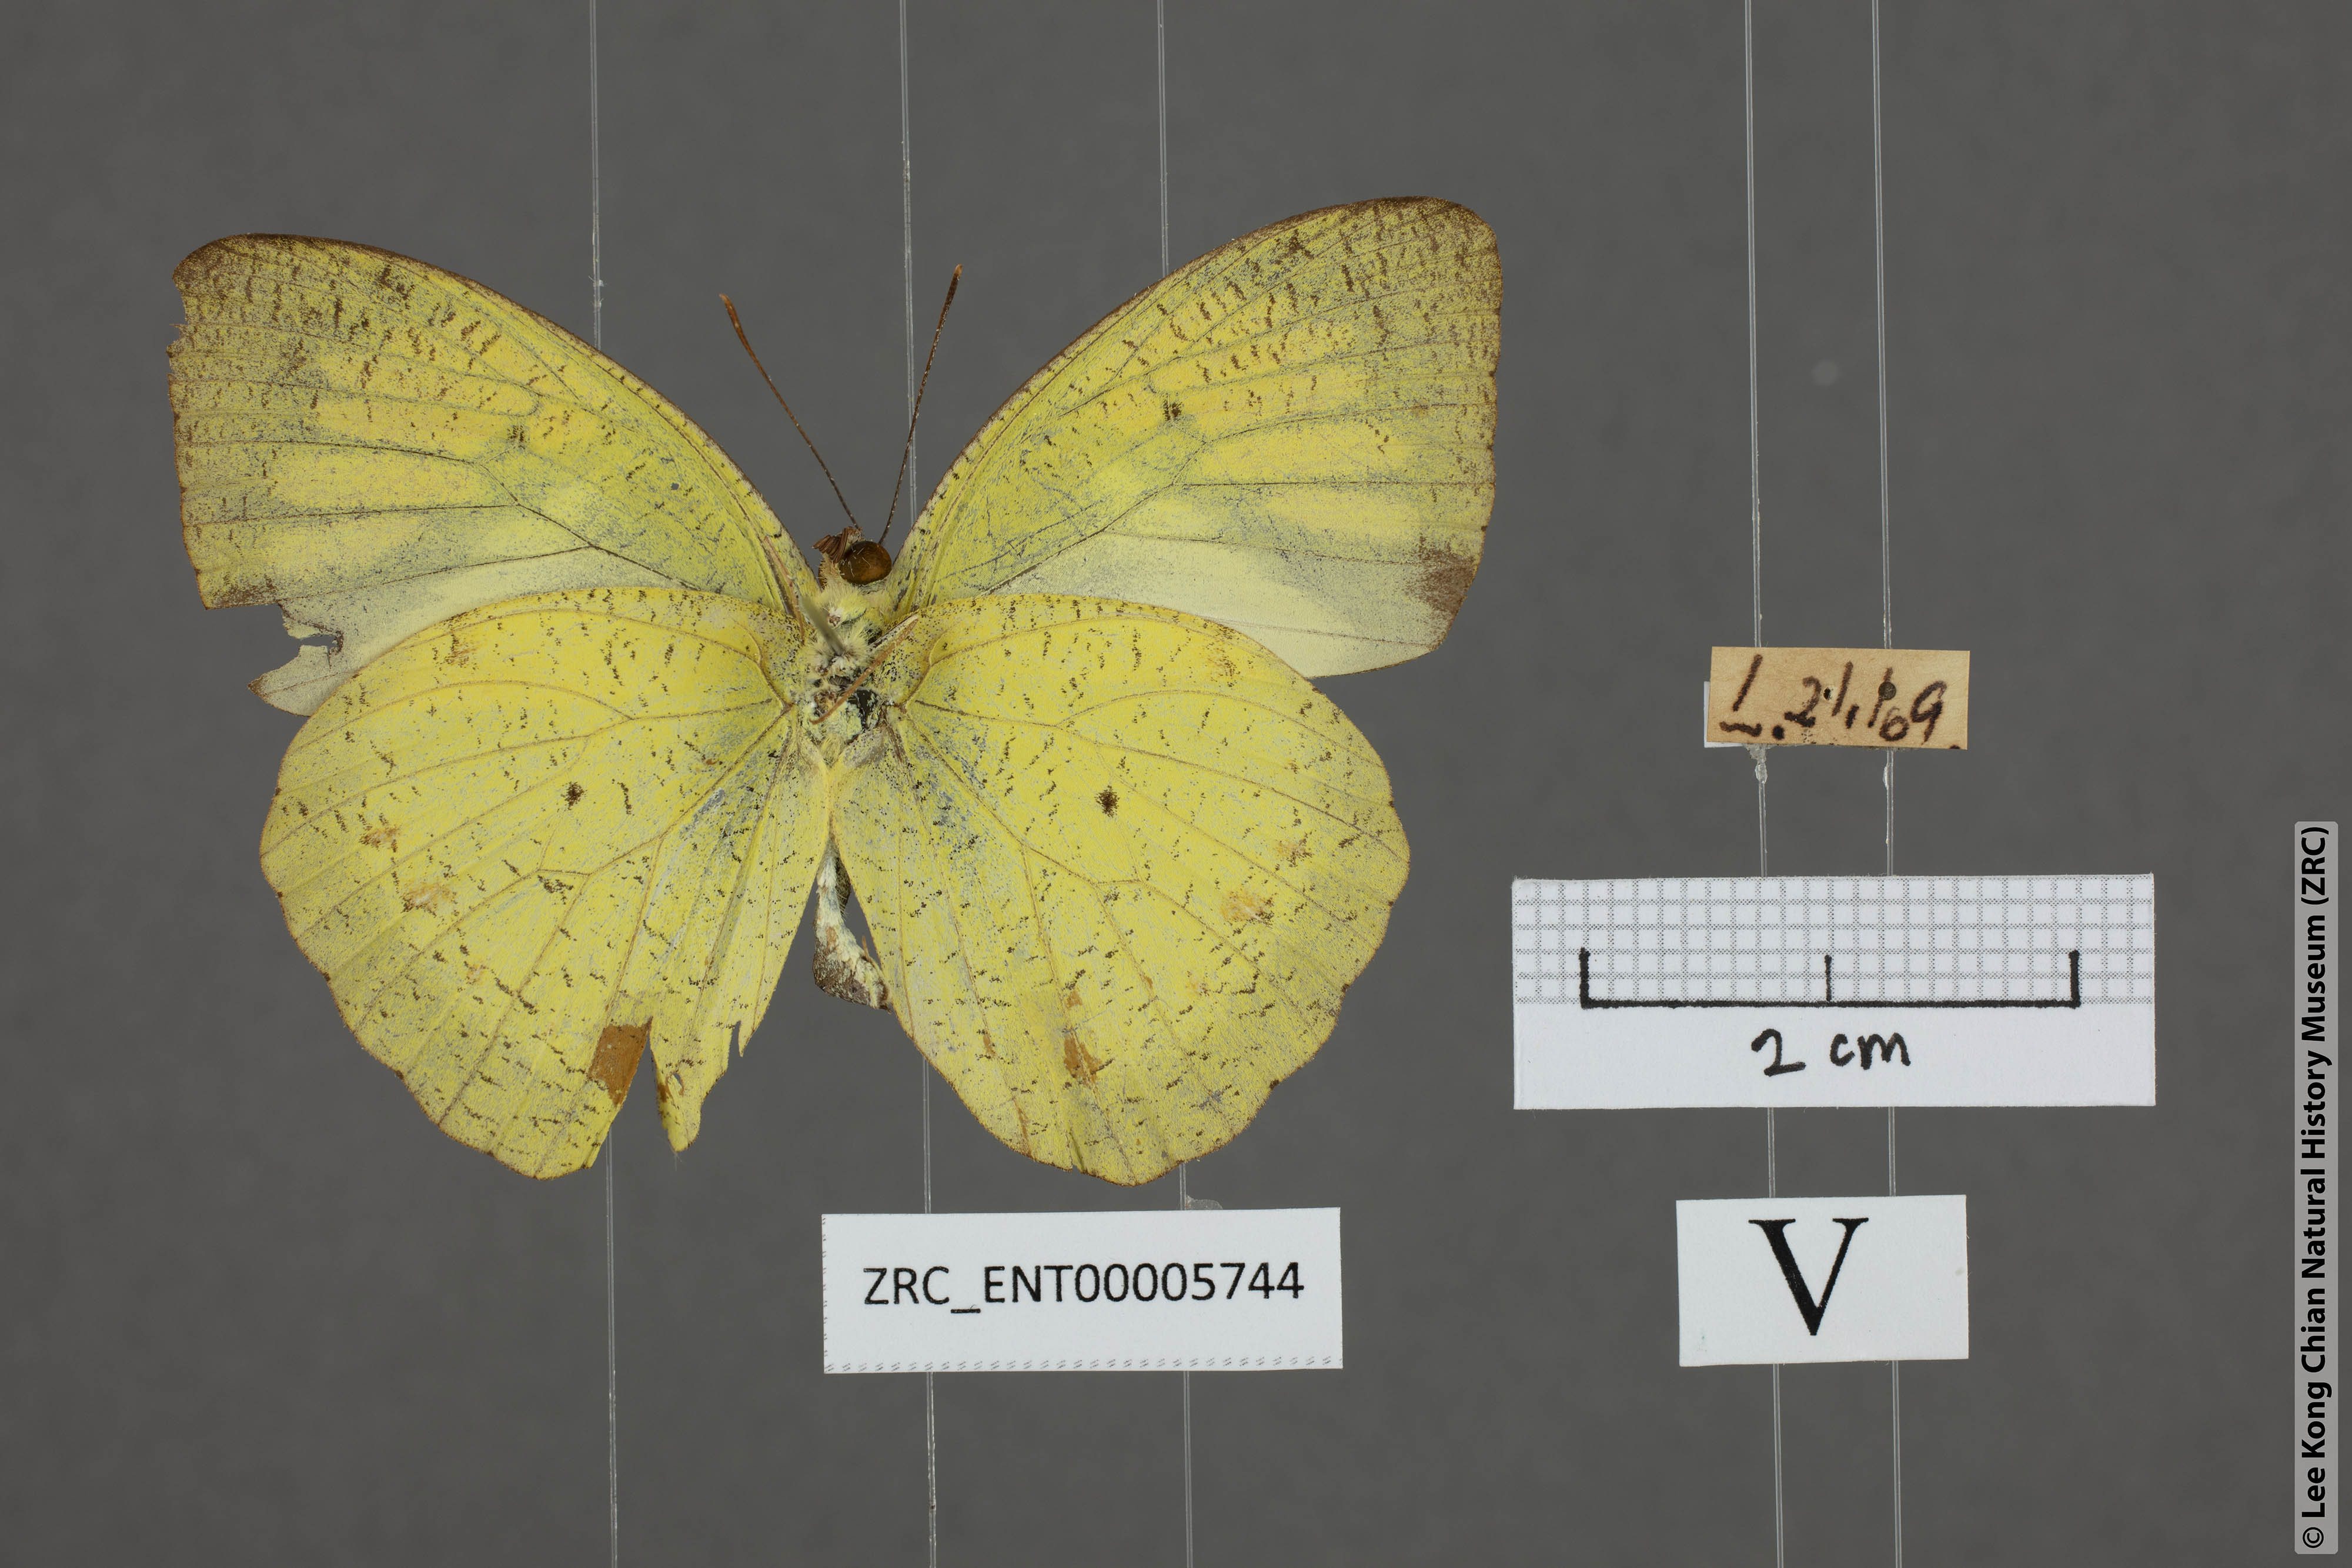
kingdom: Animalia
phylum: Arthropoda
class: Insecta
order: Lepidoptera
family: Pieridae
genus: Ixias
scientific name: Ixias pyrene
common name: Yellow orange tip
